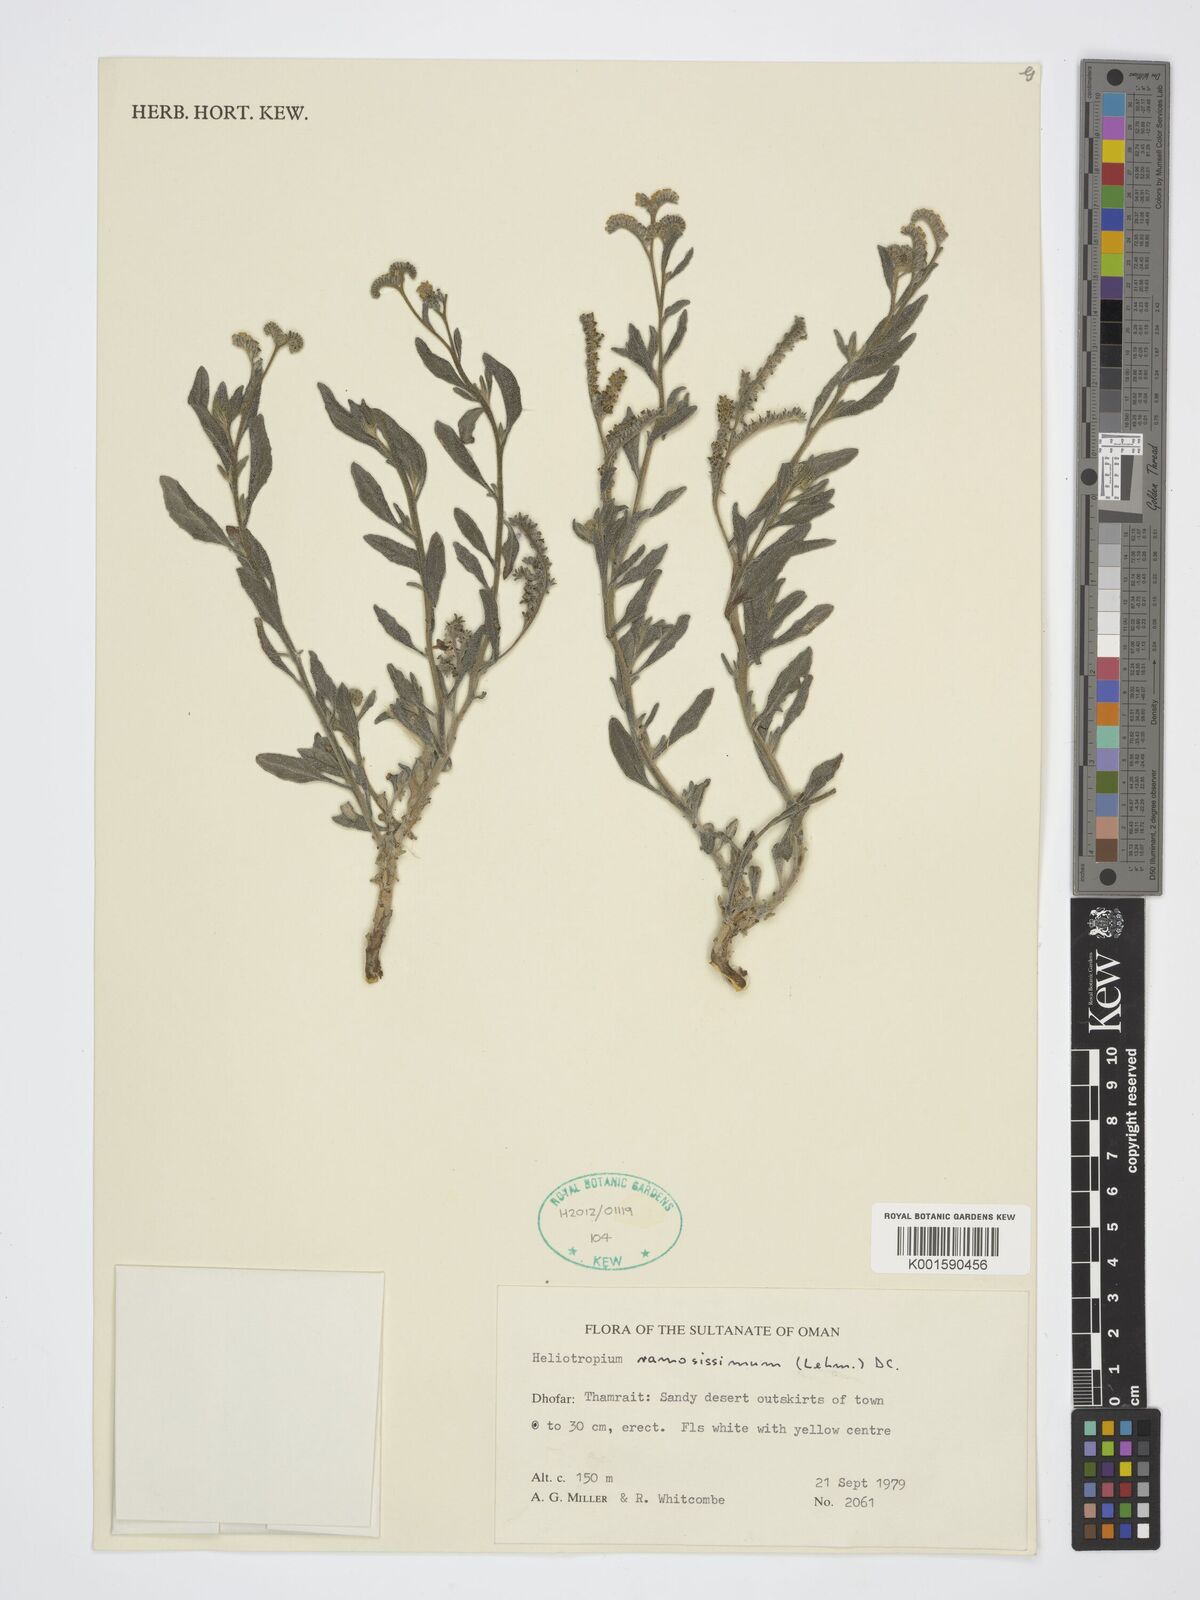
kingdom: Plantae
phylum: Tracheophyta
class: Magnoliopsida
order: Boraginales
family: Heliotropiaceae
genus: Heliotropium
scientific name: Heliotropium ramosissimum
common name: Wavy heliotrope
